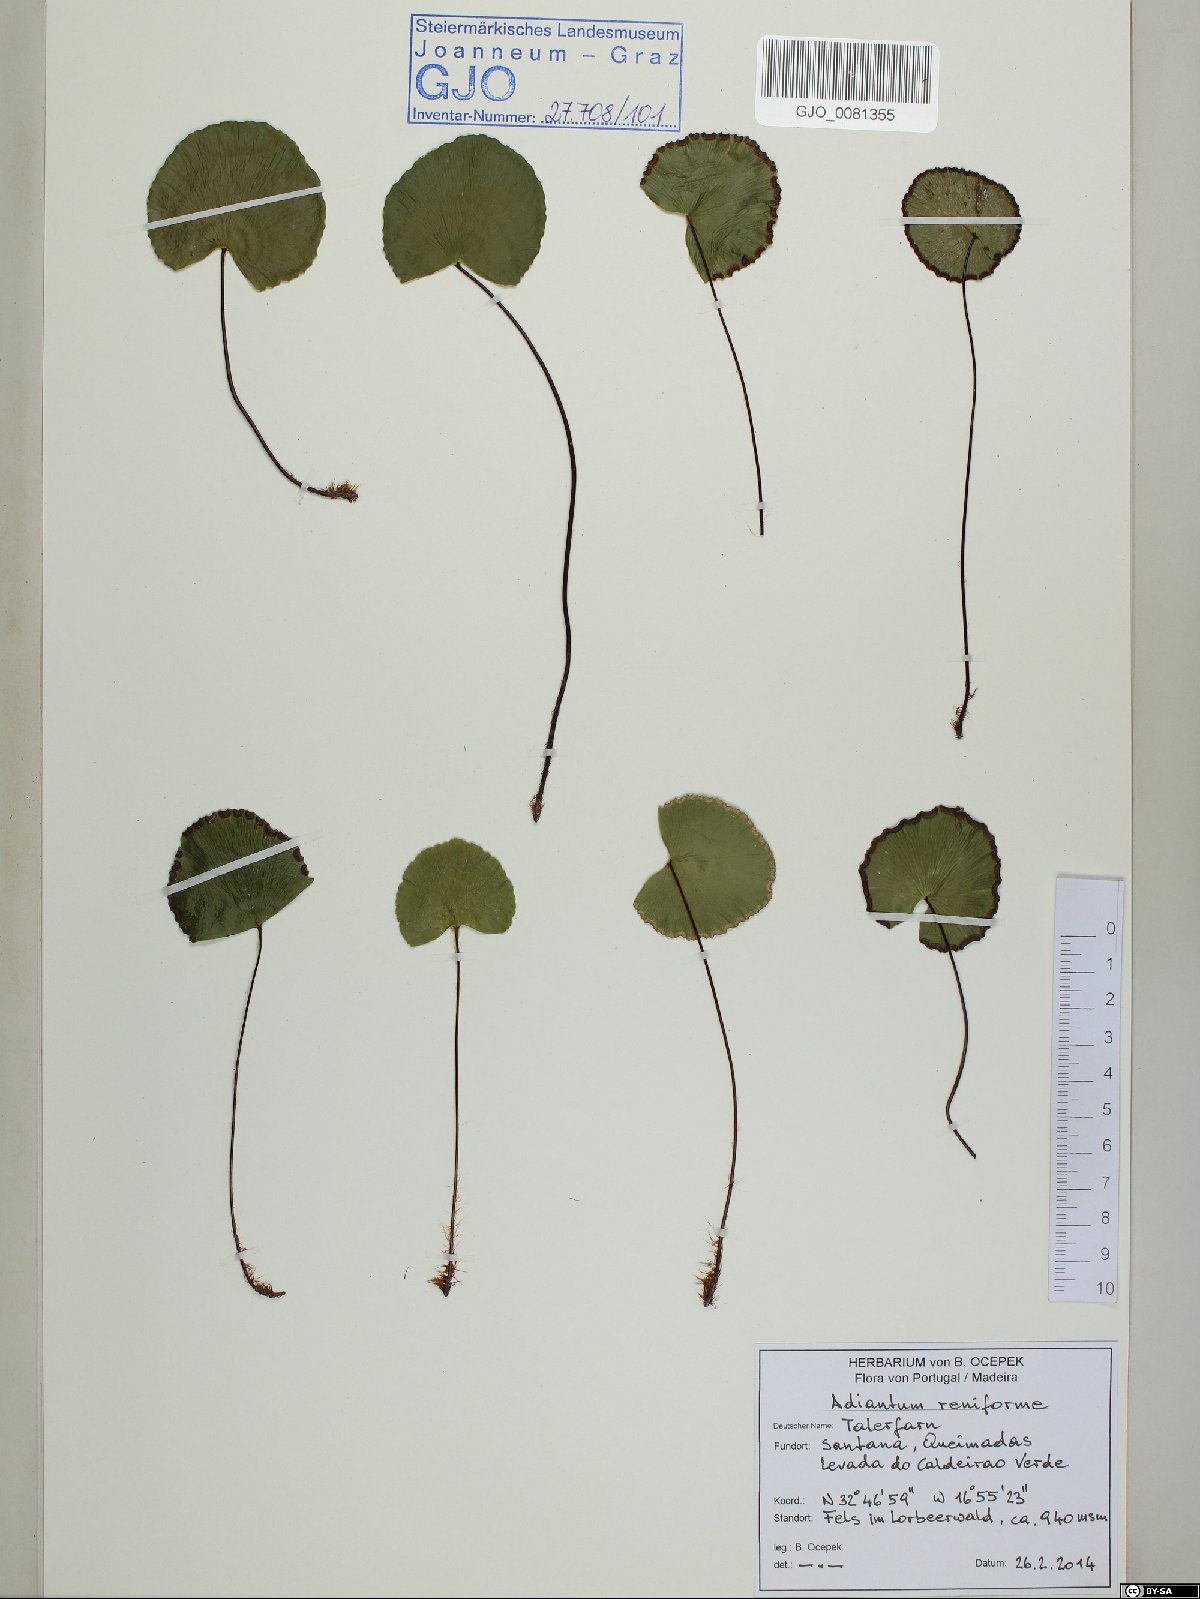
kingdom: Plantae
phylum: Tracheophyta
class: Polypodiopsida
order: Polypodiales
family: Pteridaceae
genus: Adiantum
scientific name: Adiantum reniforme
